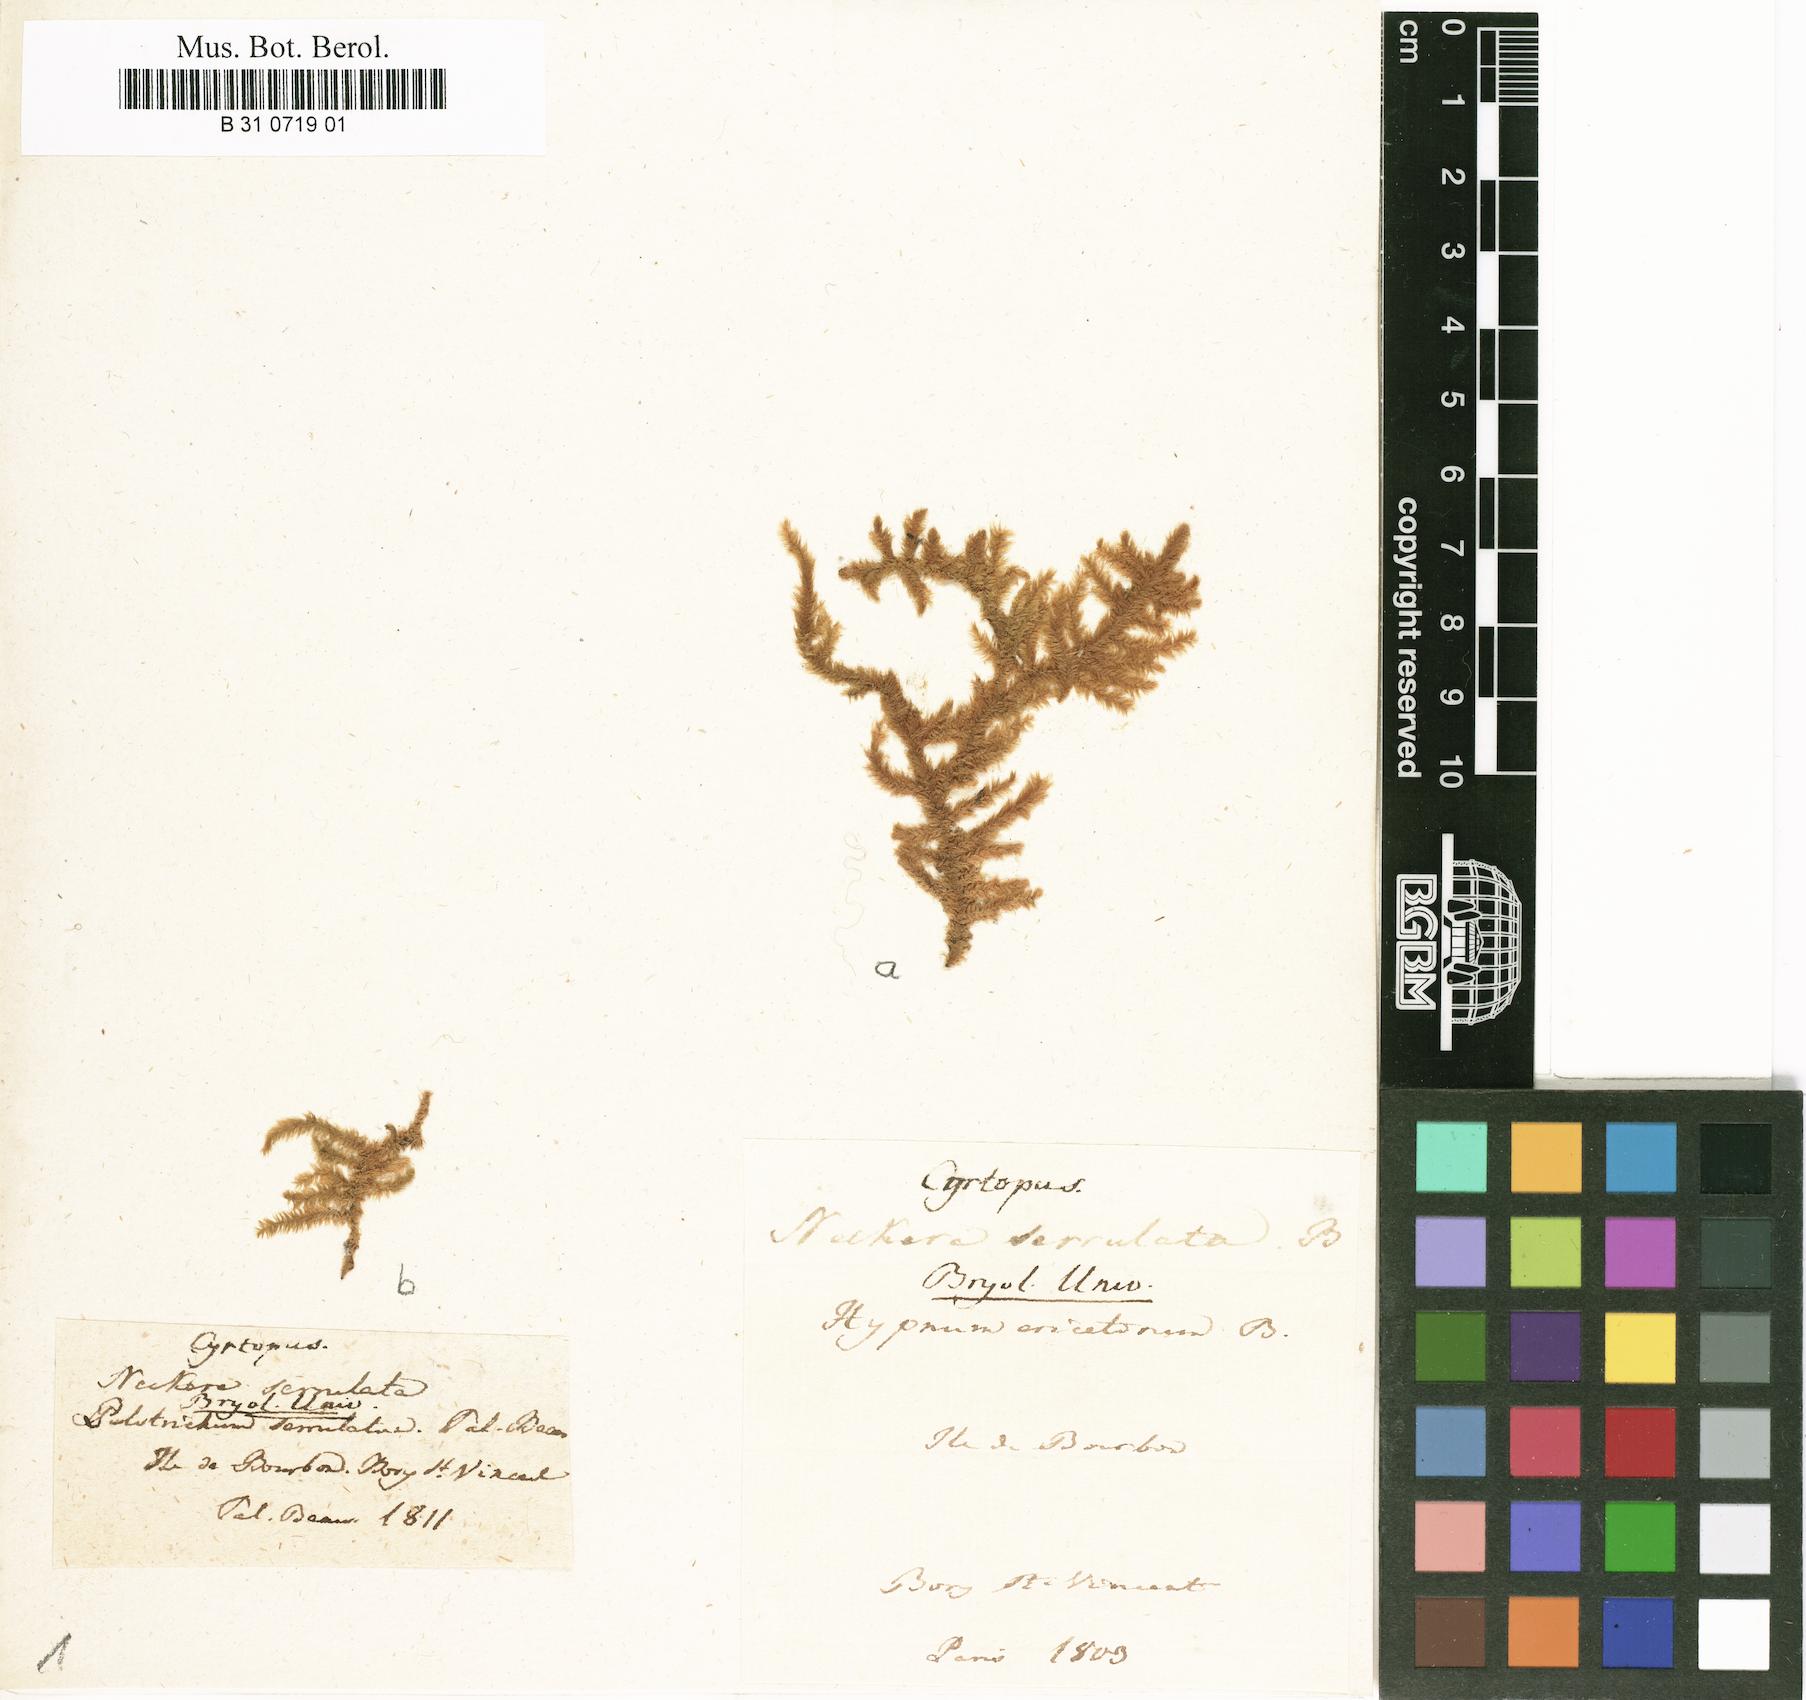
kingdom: Plantae
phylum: Bryophyta
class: Bryopsida
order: Hypnales
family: Meteoriaceae
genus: Trachypodopsis
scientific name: Trachypodopsis serrulata
